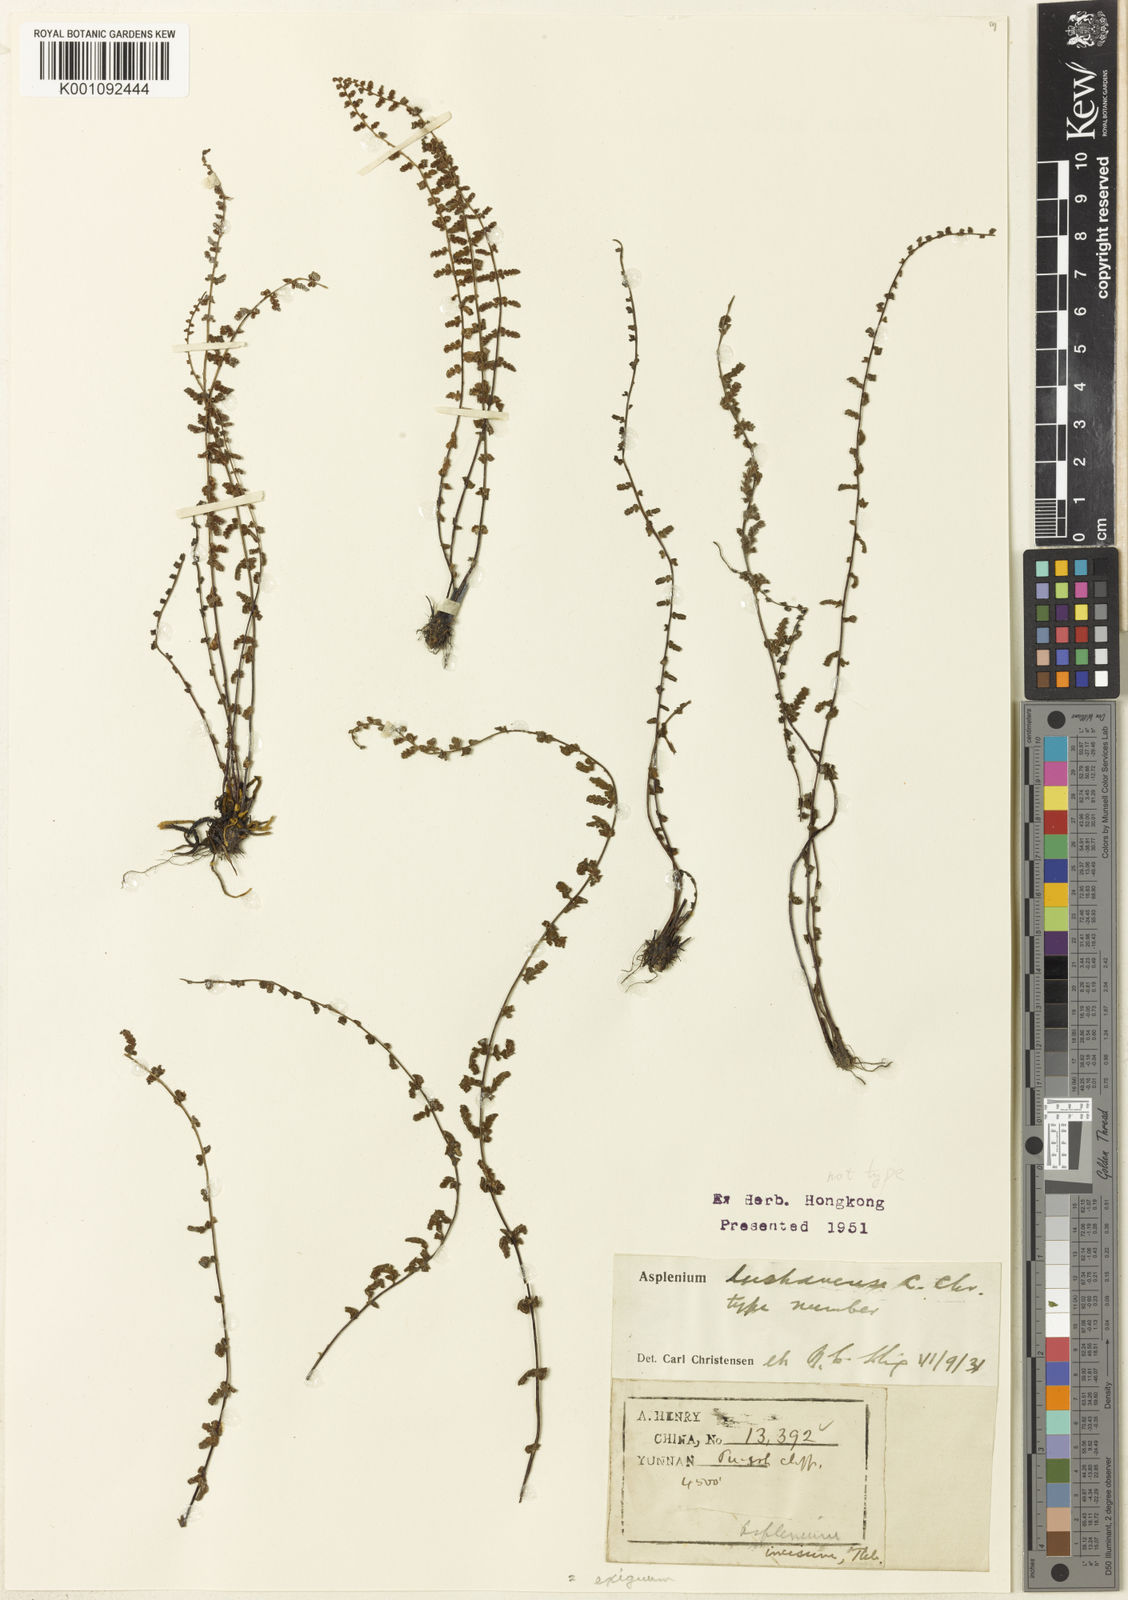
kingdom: Plantae
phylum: Tracheophyta
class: Polypodiopsida
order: Polypodiales
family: Aspleniaceae
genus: Asplenium
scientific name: Asplenium exiguum
